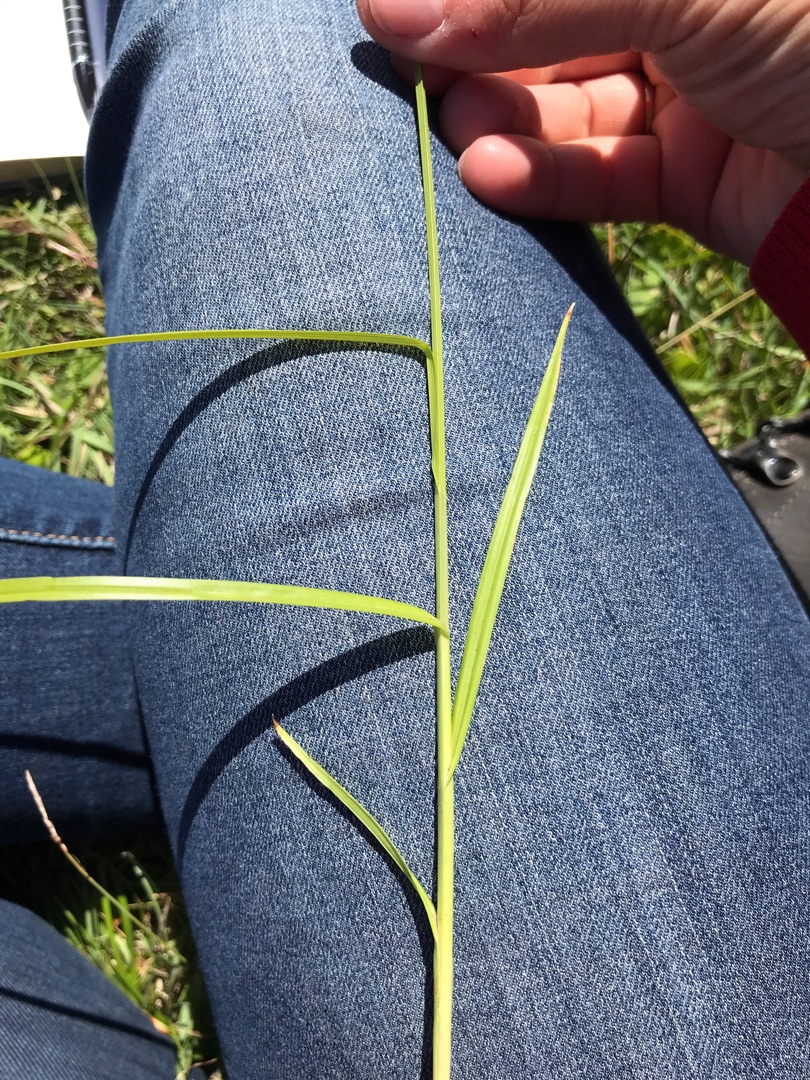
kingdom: Plantae
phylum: Tracheophyta
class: Liliopsida
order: Poales
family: Cyperaceae
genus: Carex
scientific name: Carex otrubae
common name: Sylt-star
